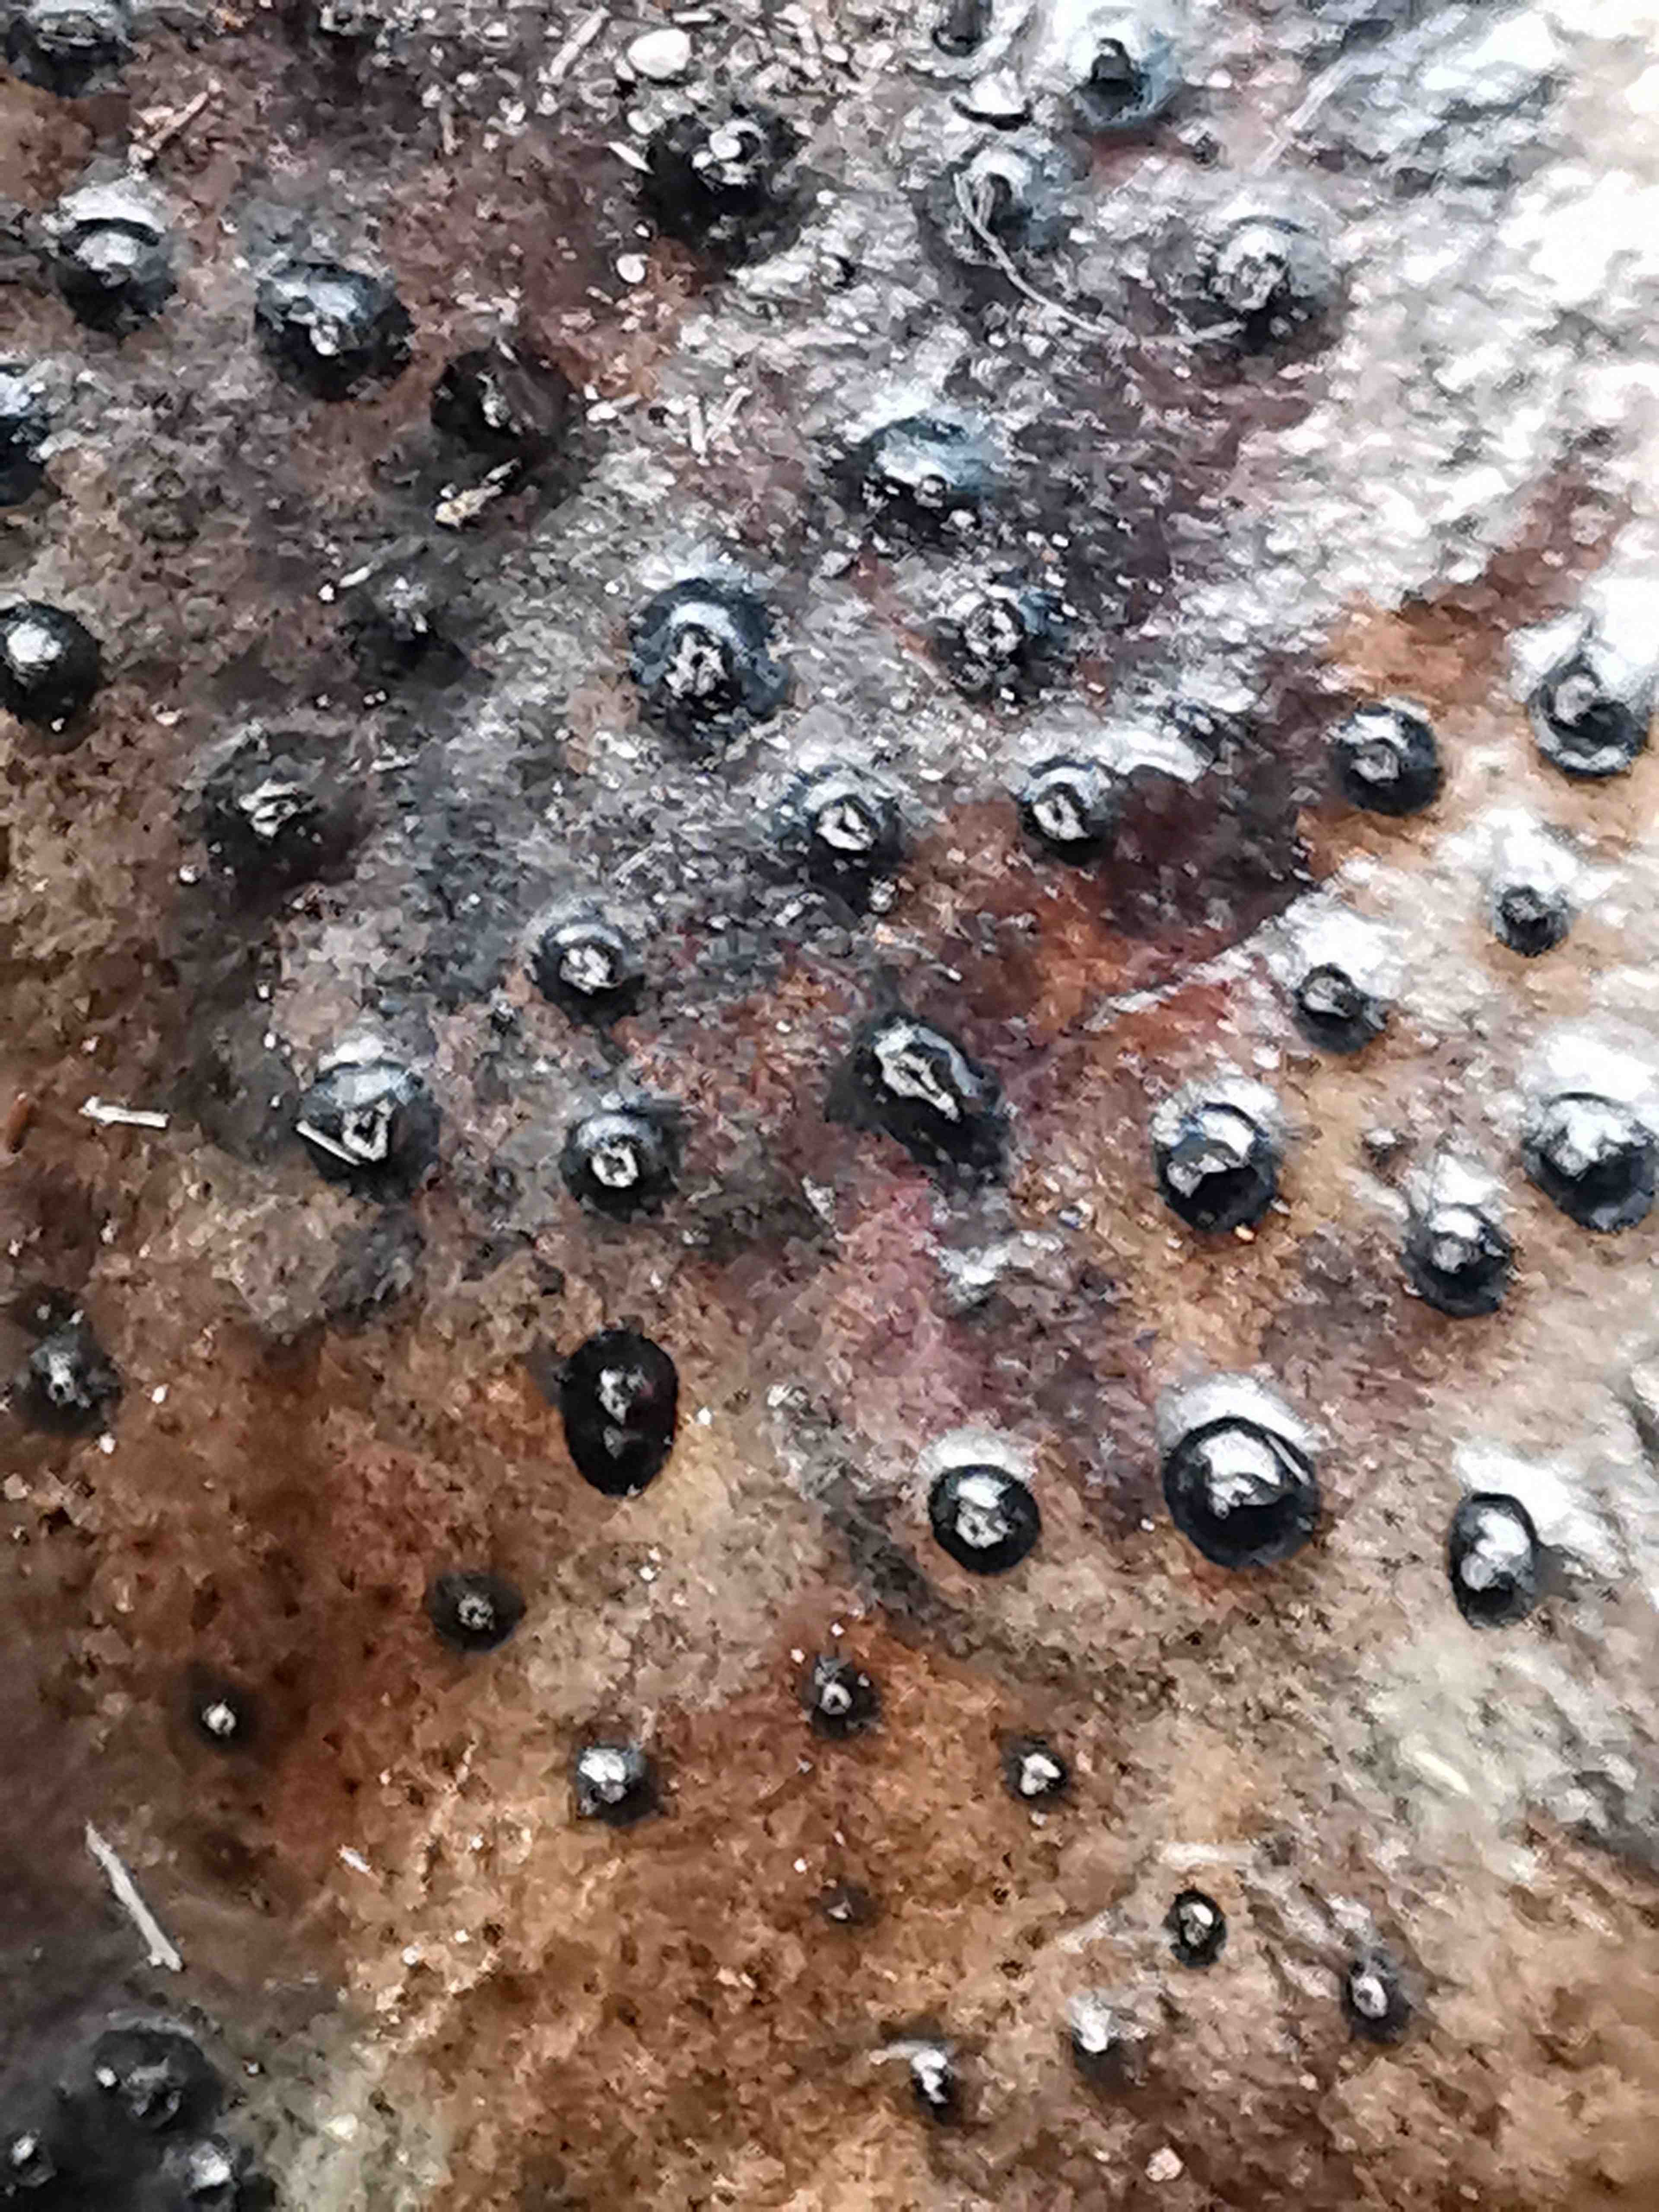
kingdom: Fungi
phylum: Ascomycota
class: Leotiomycetes
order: Phacidiales
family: Phacidiaceae
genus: Phacidium
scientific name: Phacidium lauri
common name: kristtorn-tandskive
